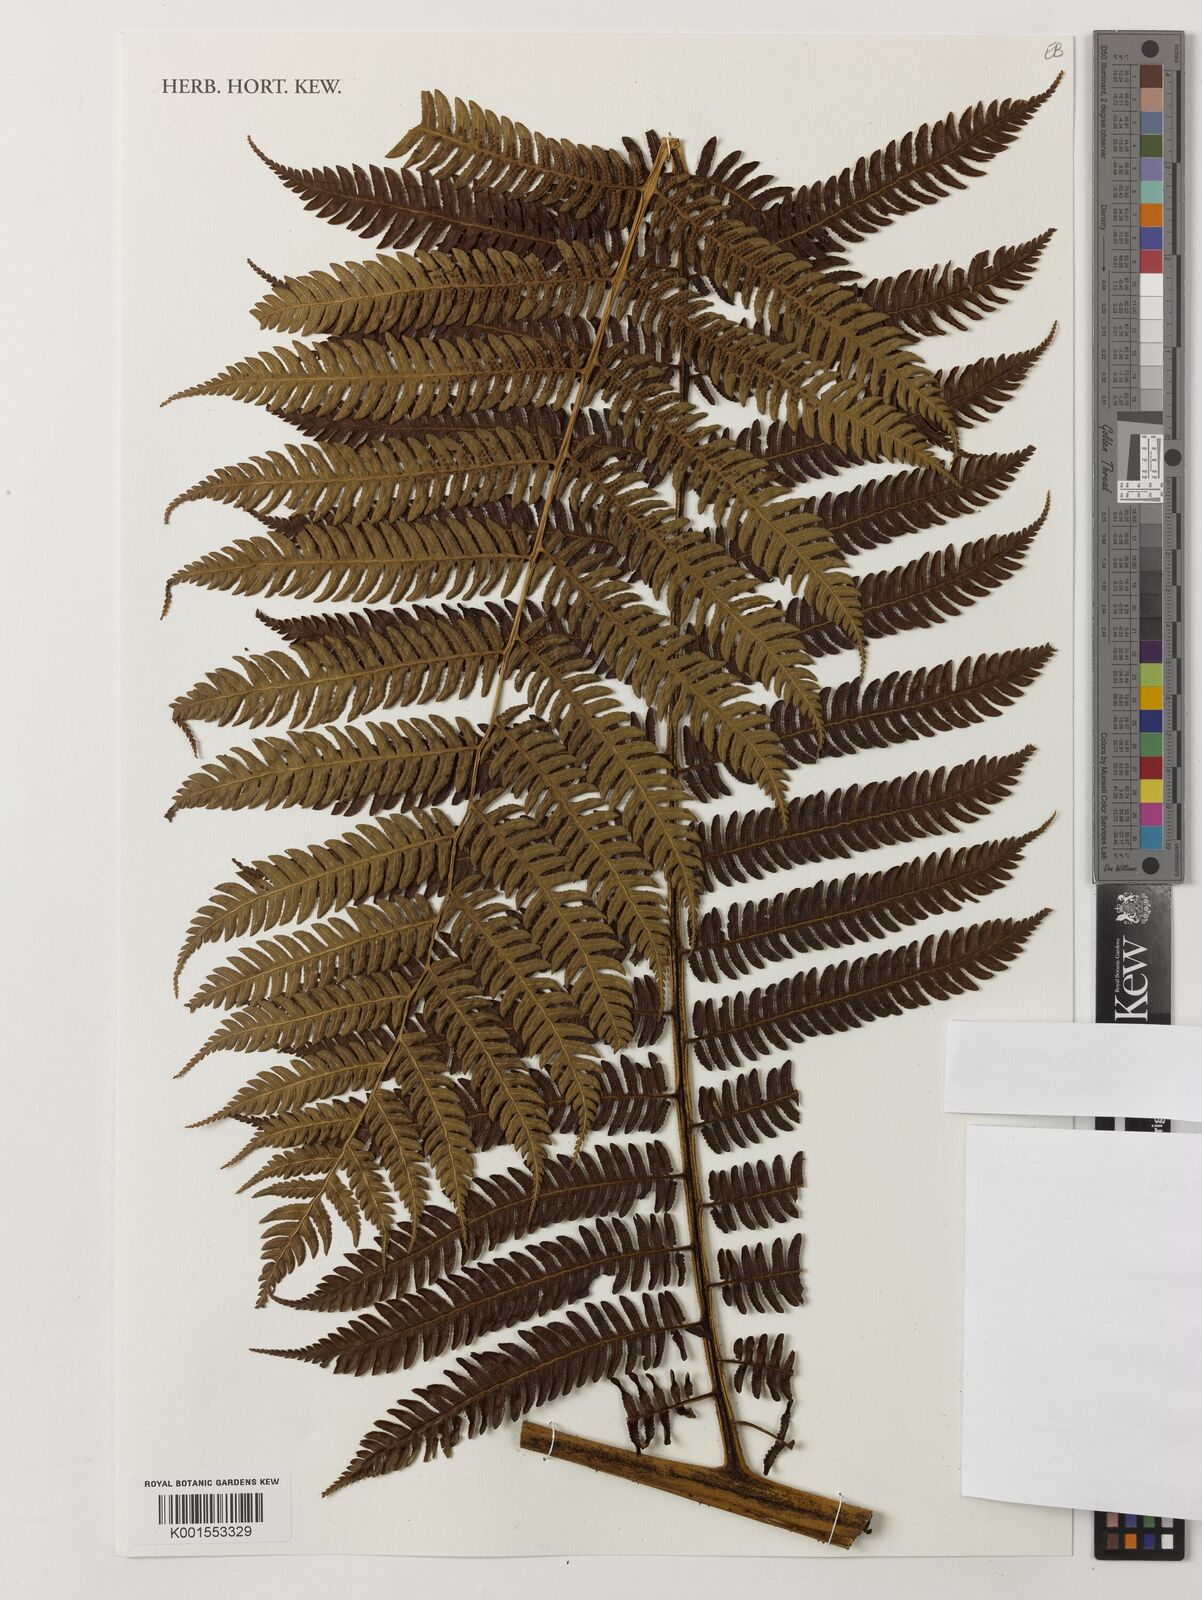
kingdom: Plantae
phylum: Tracheophyta
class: Polypodiopsida
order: Cyatheales
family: Cyatheaceae
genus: Sphaeropteris
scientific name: Sphaeropteris
